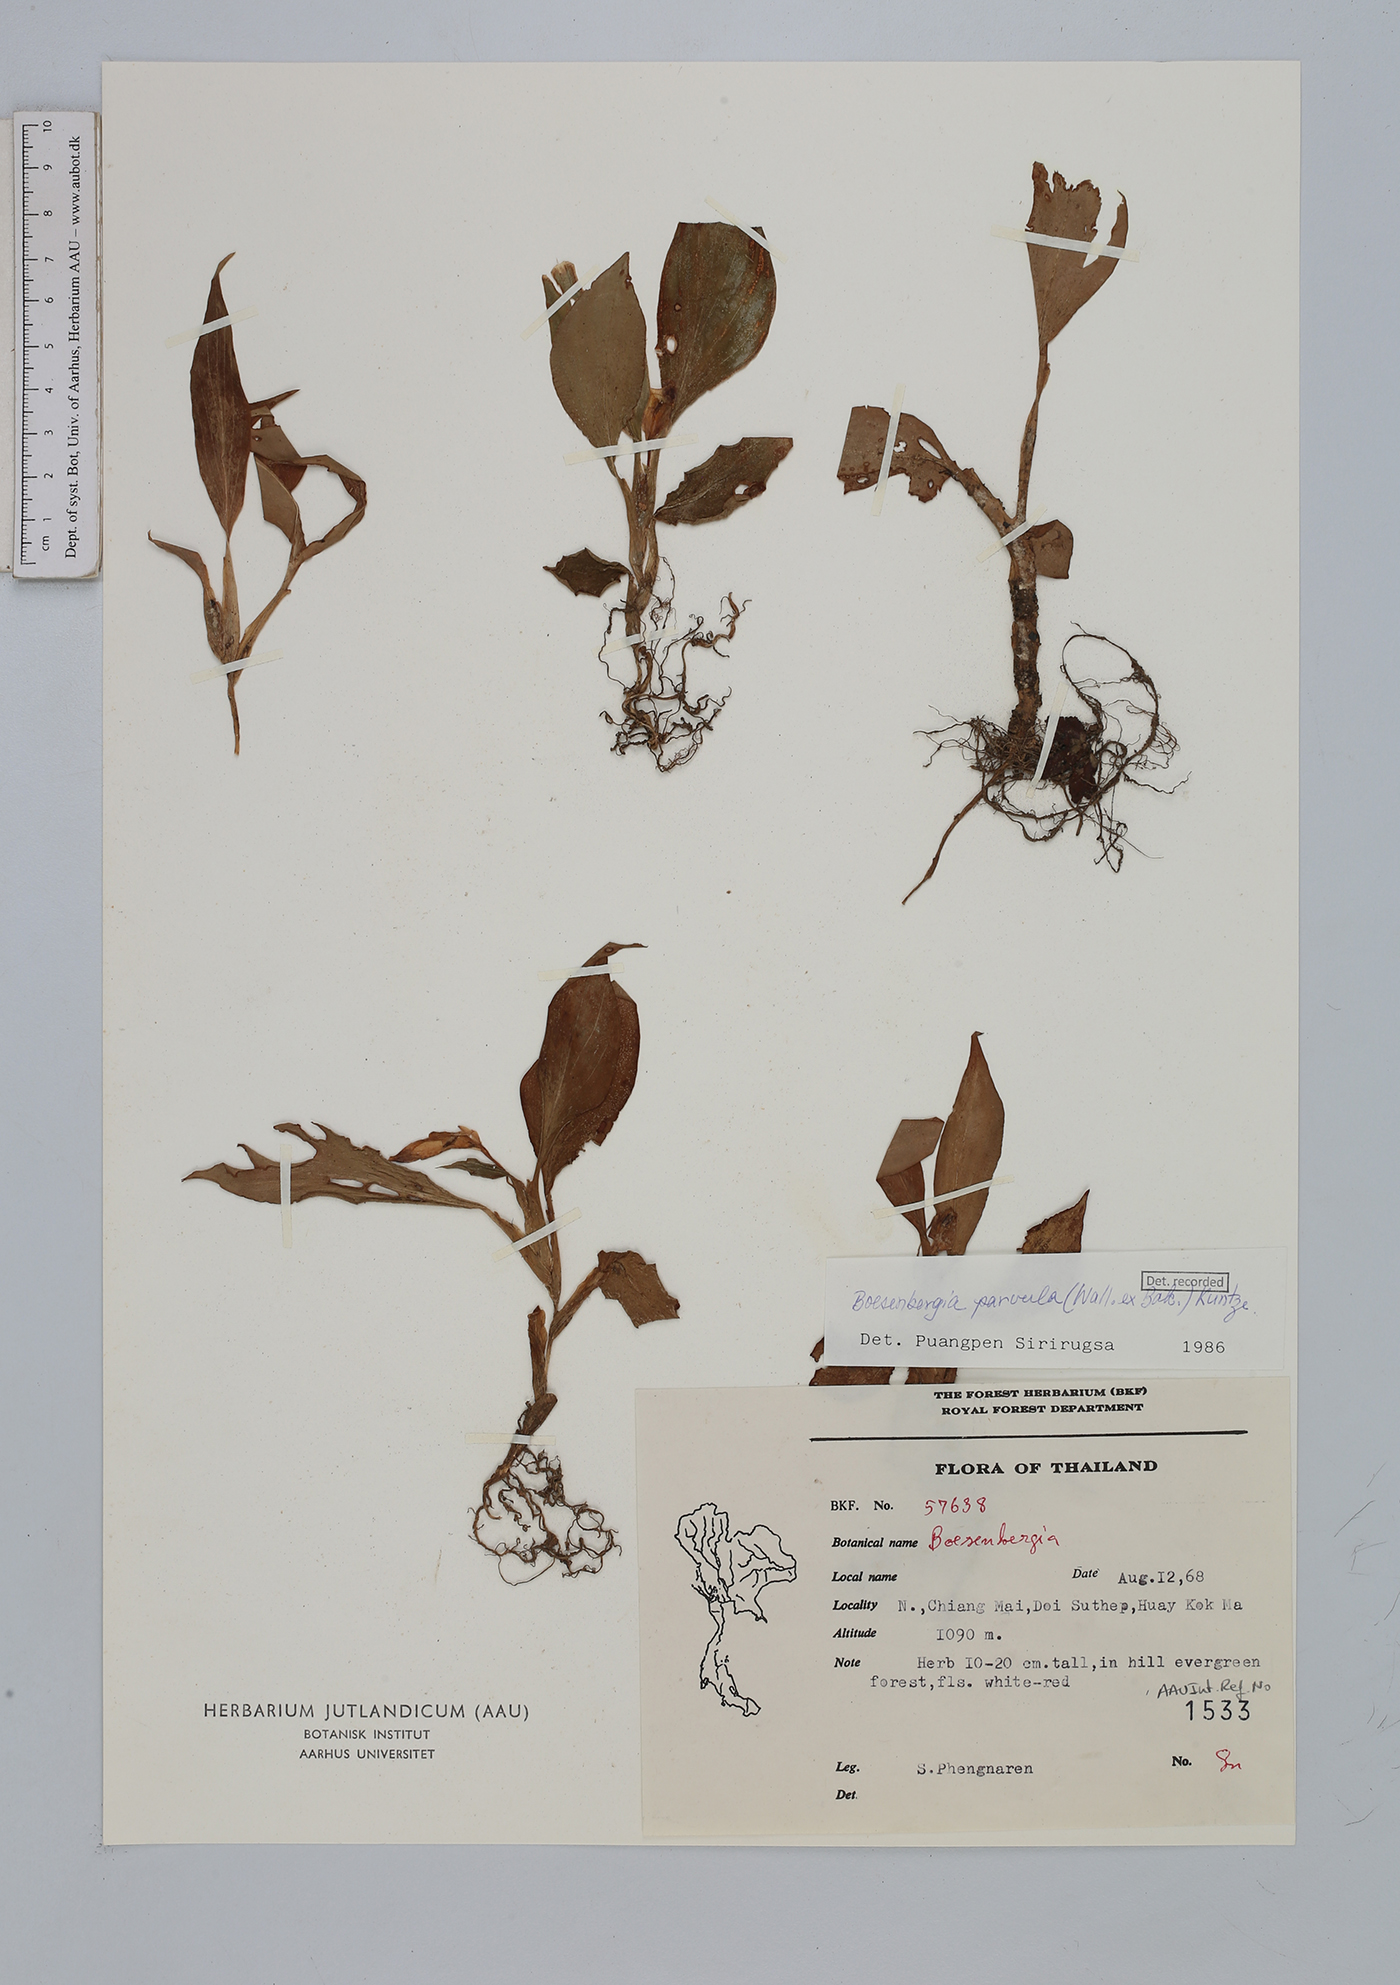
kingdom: Plantae
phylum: Tracheophyta
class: Liliopsida
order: Zingiberales
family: Zingiberaceae
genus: Boesenbergia
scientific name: Boesenbergia parvula
